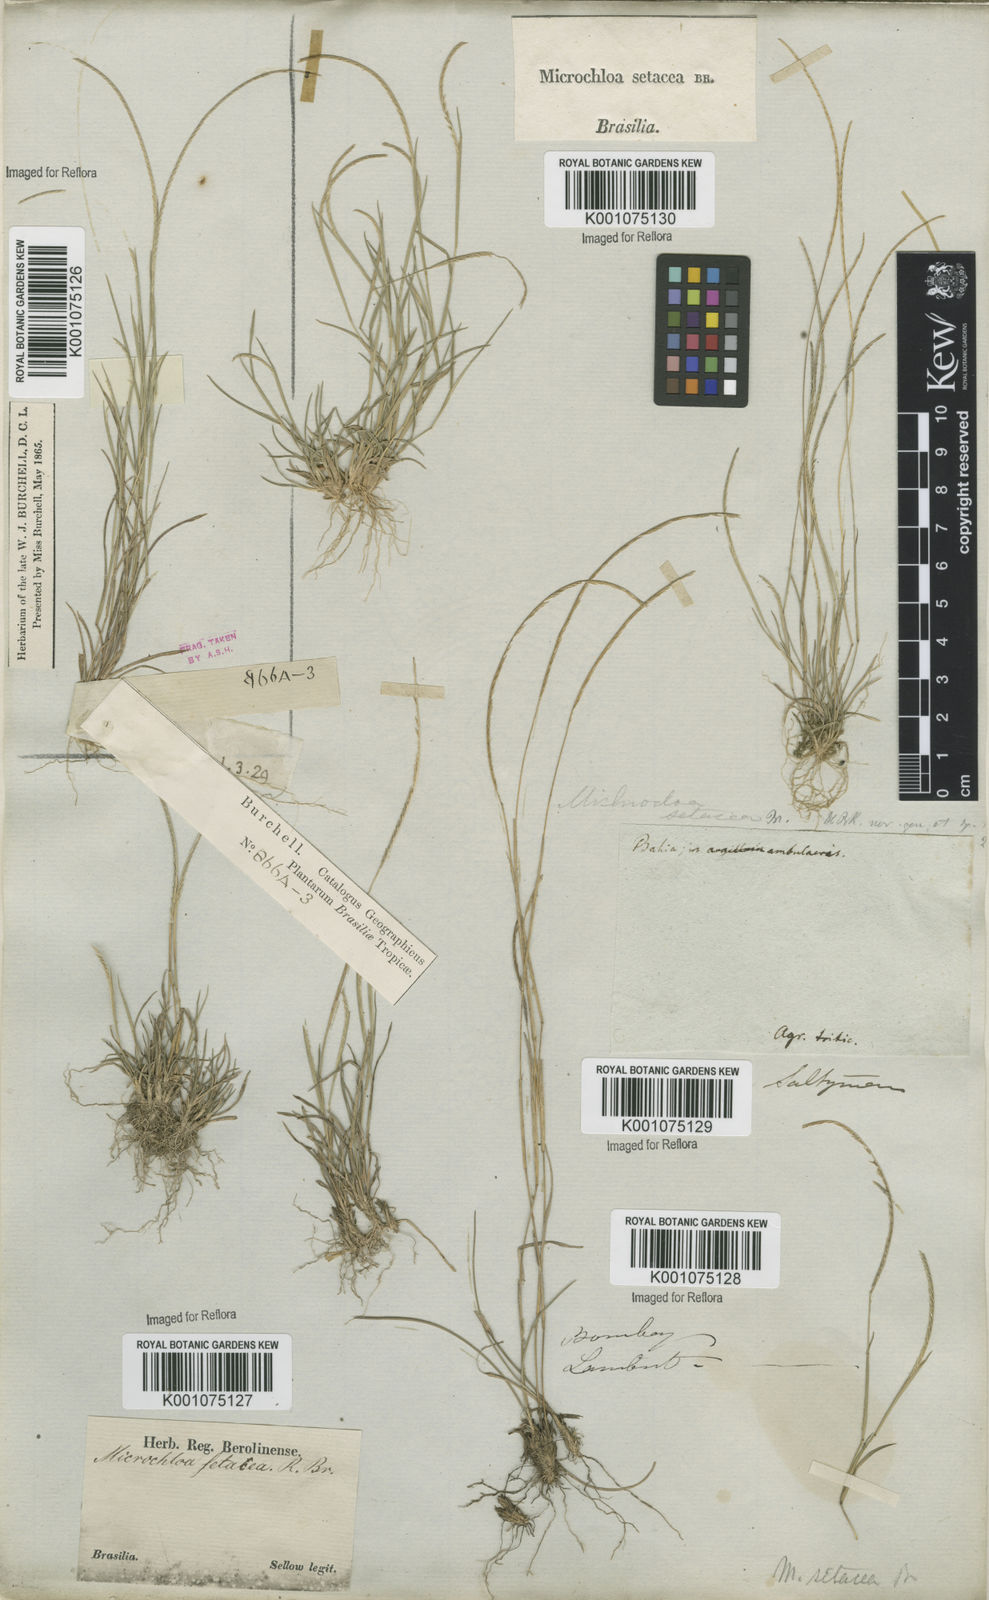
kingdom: Plantae
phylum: Tracheophyta
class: Liliopsida
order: Poales
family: Poaceae
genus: Microchloa
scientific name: Microchloa indica
